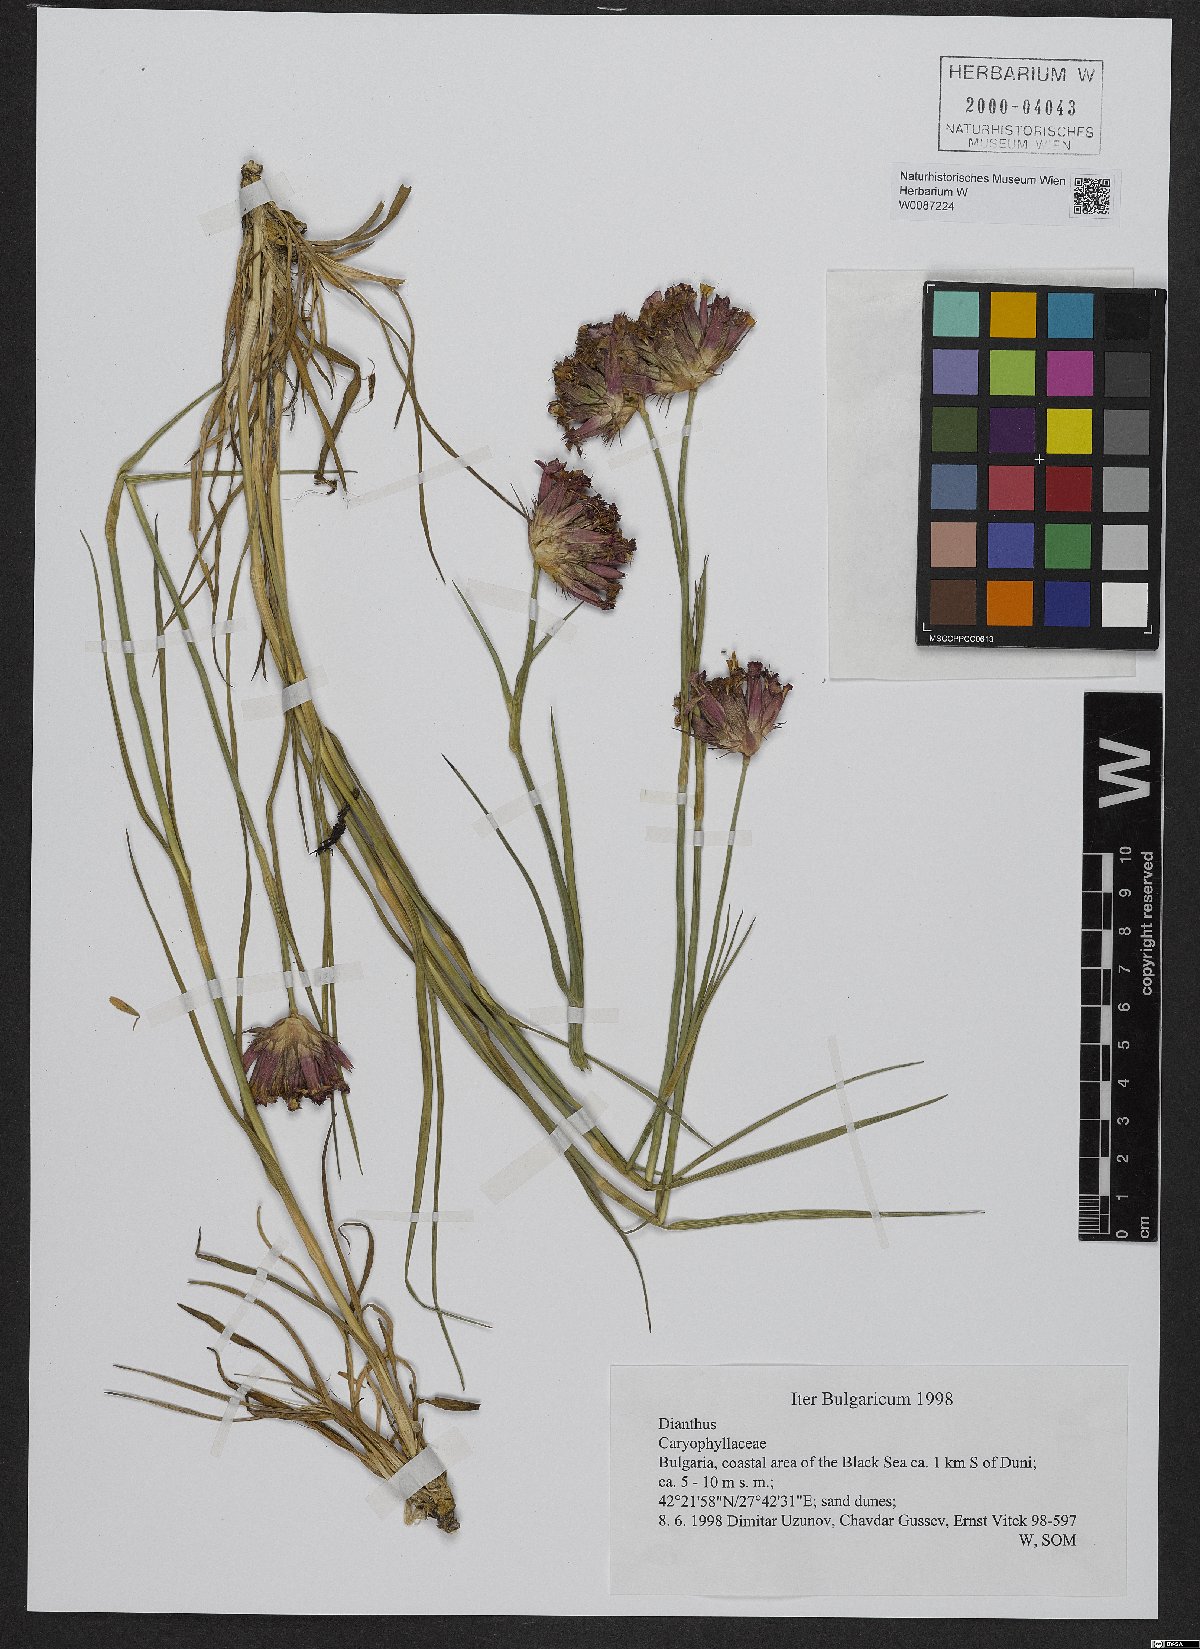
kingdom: Plantae
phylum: Tracheophyta
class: Magnoliopsida
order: Caryophyllales
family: Caryophyllaceae
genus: Dianthus
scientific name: Dianthus cruentus
